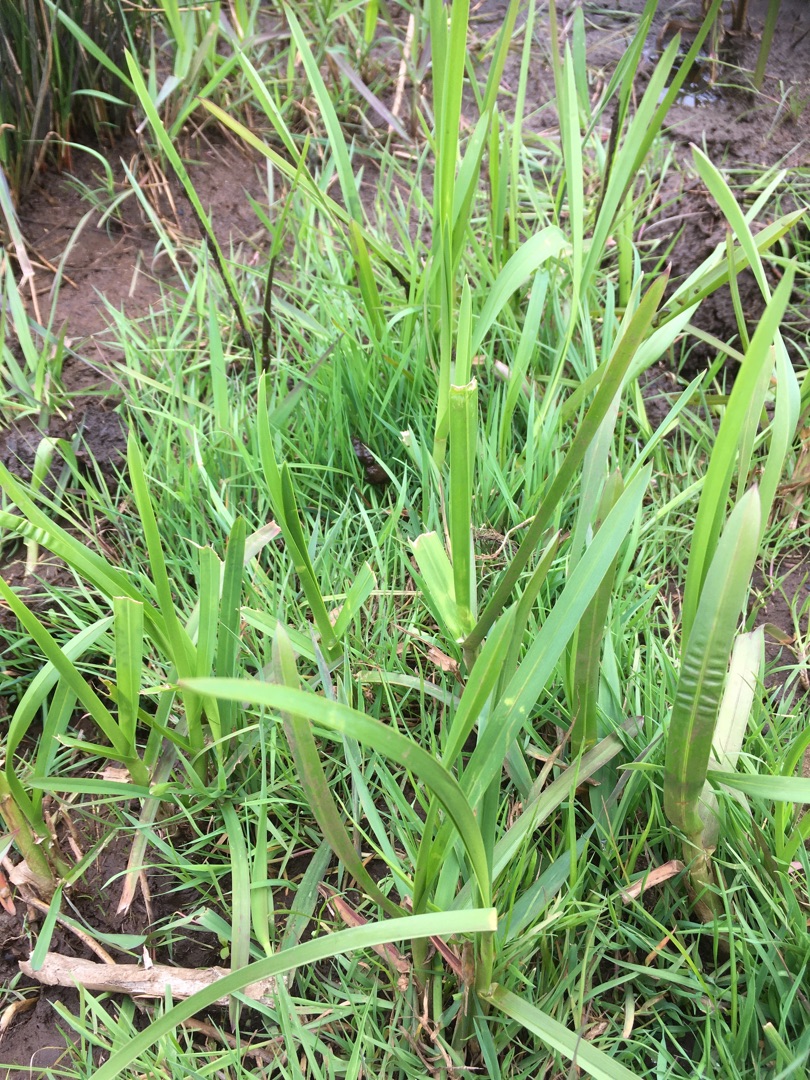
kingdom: Plantae
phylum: Tracheophyta
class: Liliopsida
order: Poales
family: Poaceae
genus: Glyceria
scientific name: Glyceria maxima
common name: Høj sødgræs
